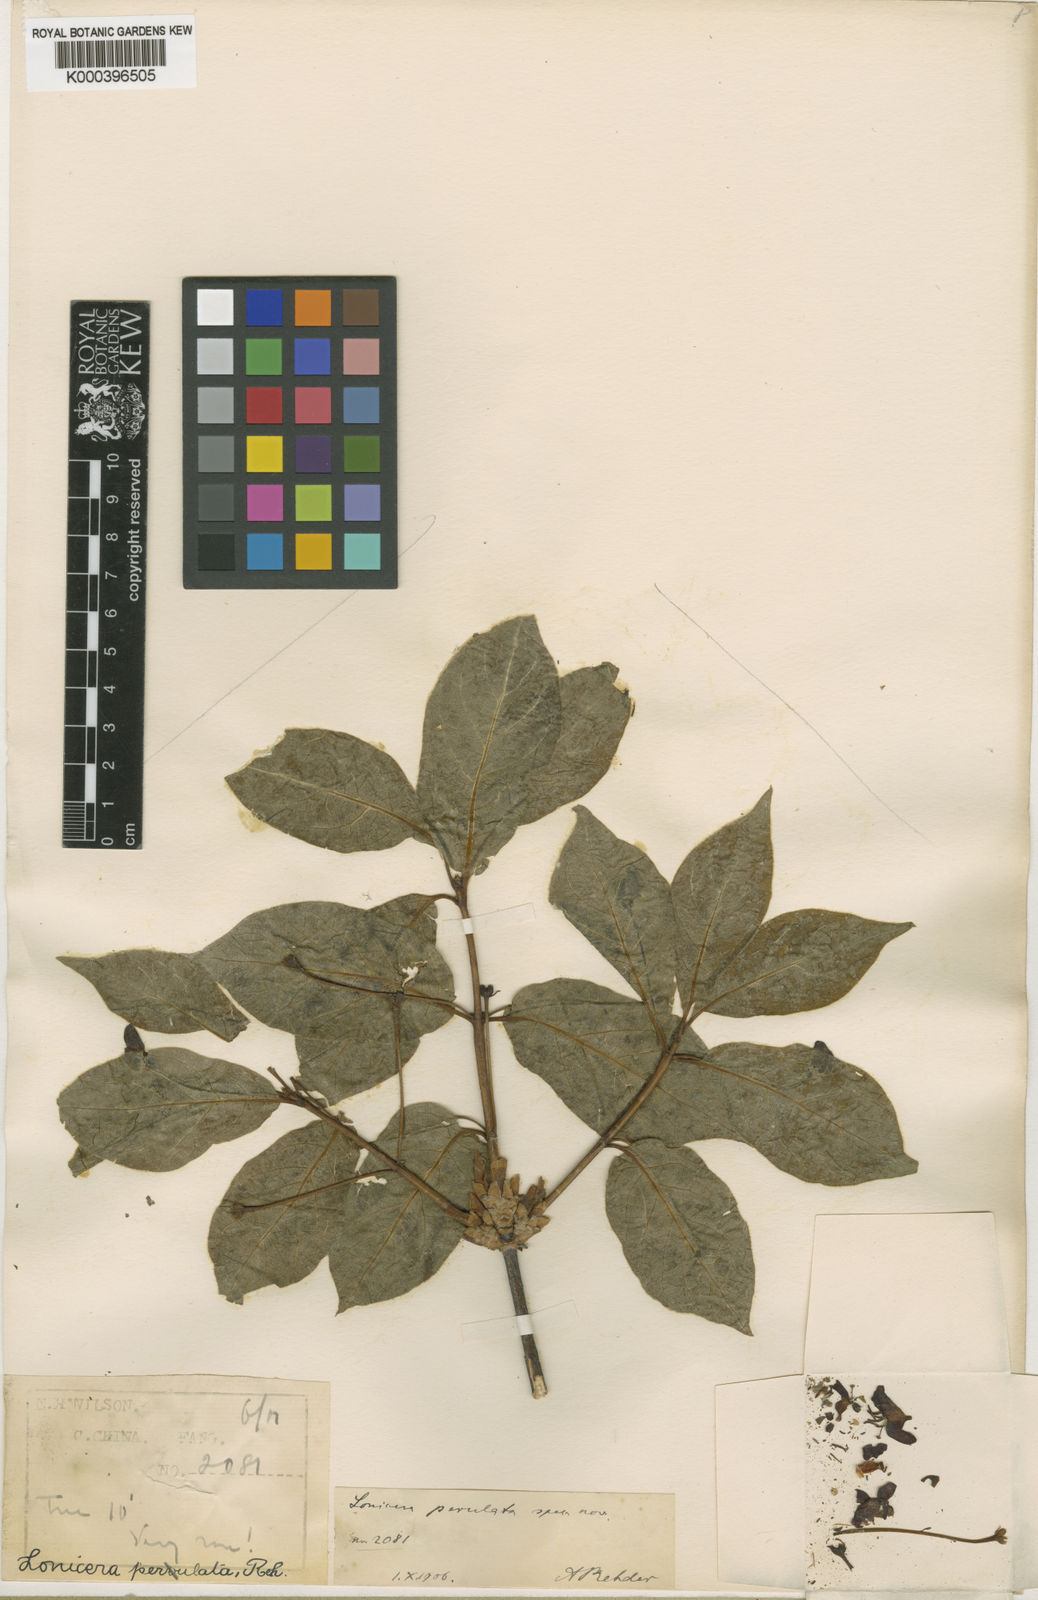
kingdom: Plantae
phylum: Tracheophyta
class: Magnoliopsida
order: Dipsacales
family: Caprifoliaceae
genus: Lonicera
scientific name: Lonicera webbiana
